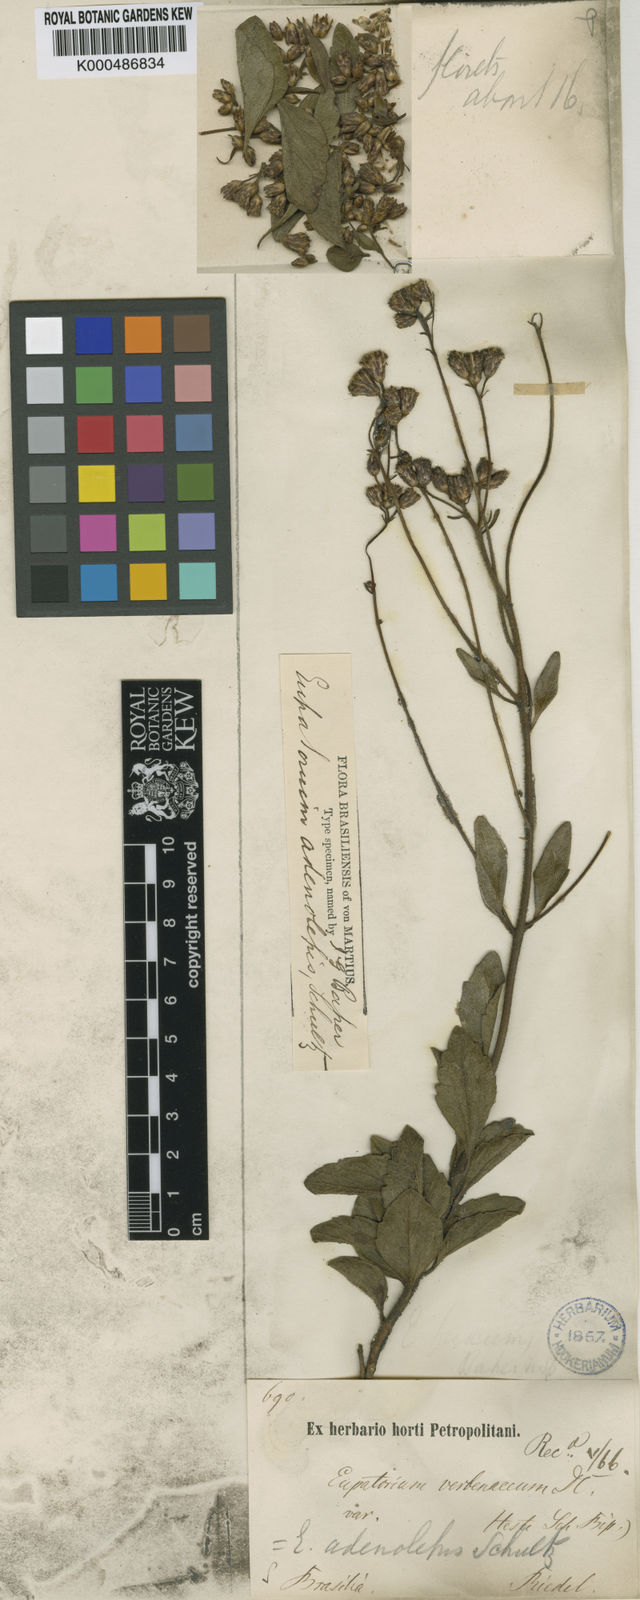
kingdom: Plantae
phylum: Tracheophyta
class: Magnoliopsida
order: Asterales
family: Asteraceae
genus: Chromolaena
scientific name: Chromolaena adenolepis
